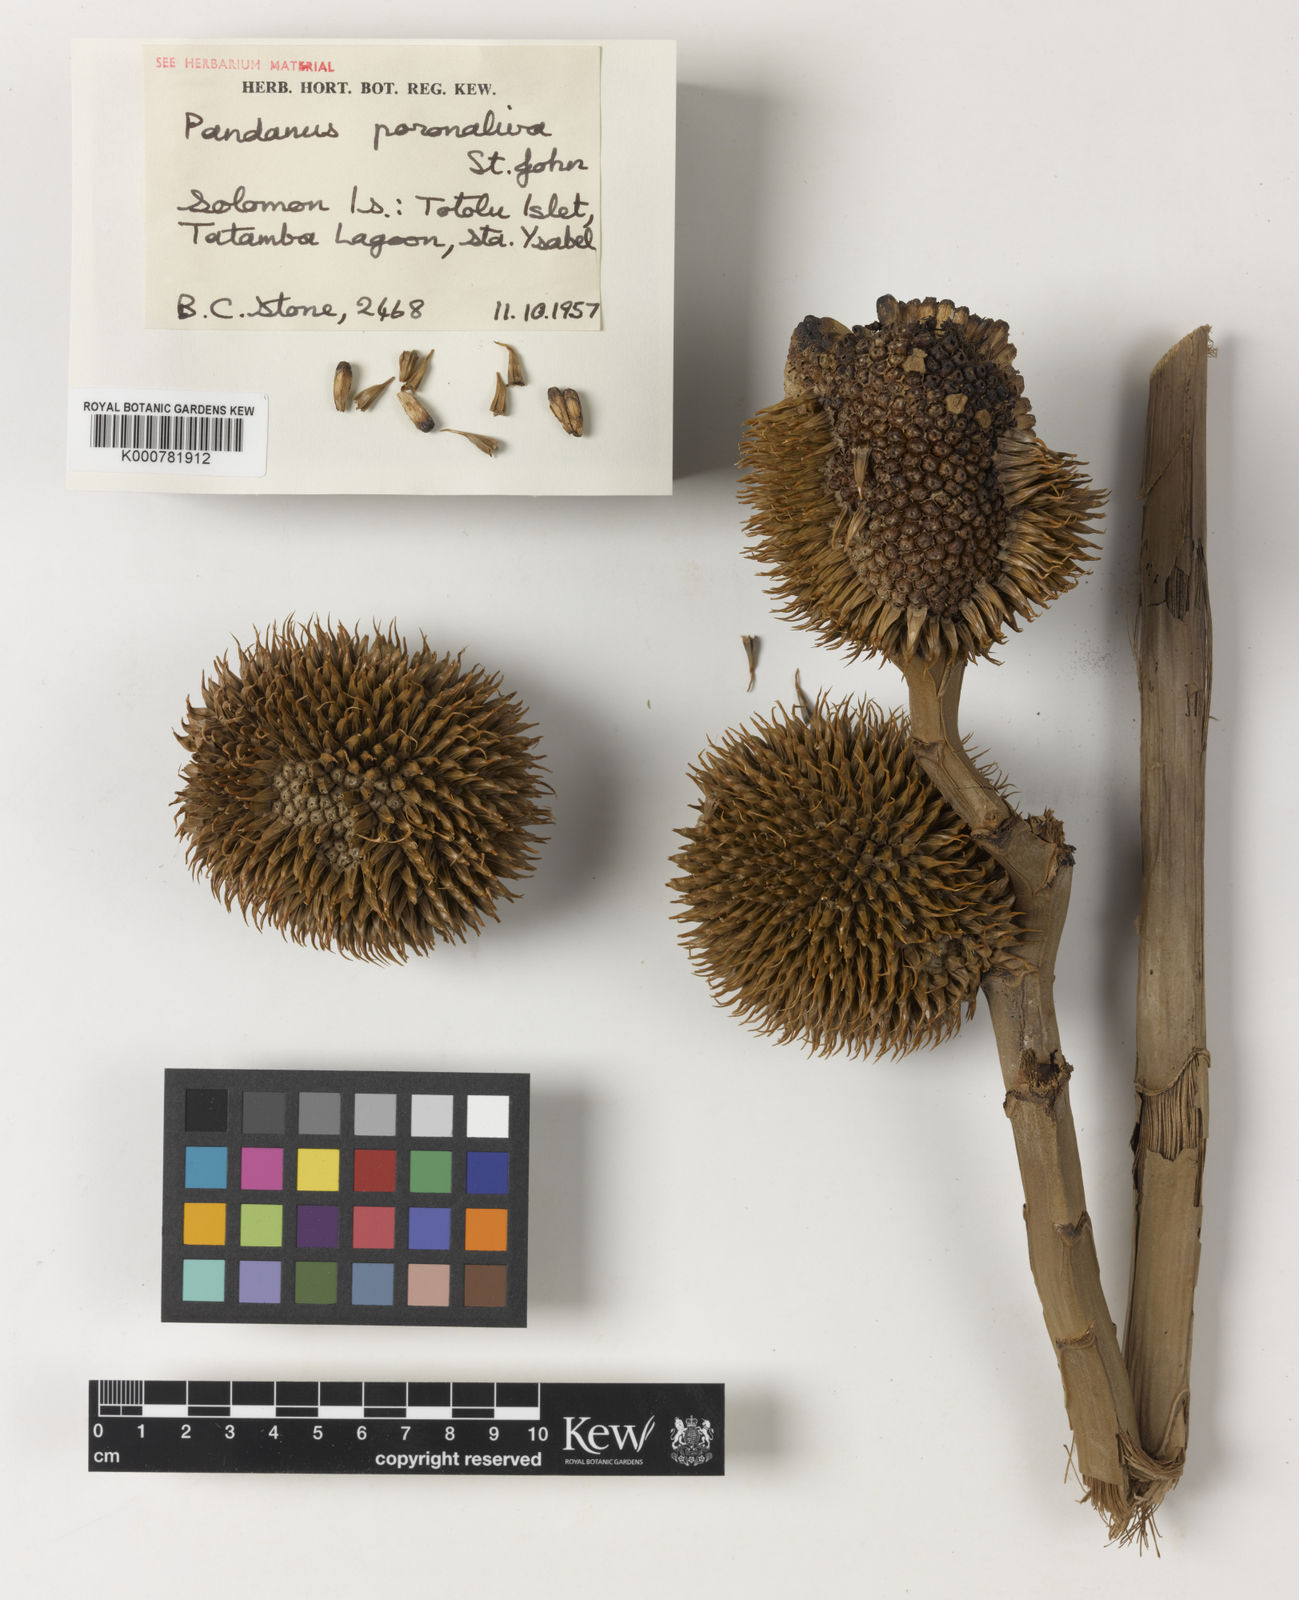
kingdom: Plantae
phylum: Tracheophyta
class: Liliopsida
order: Pandanales
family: Pandanaceae
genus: Pandanus
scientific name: Pandanus
